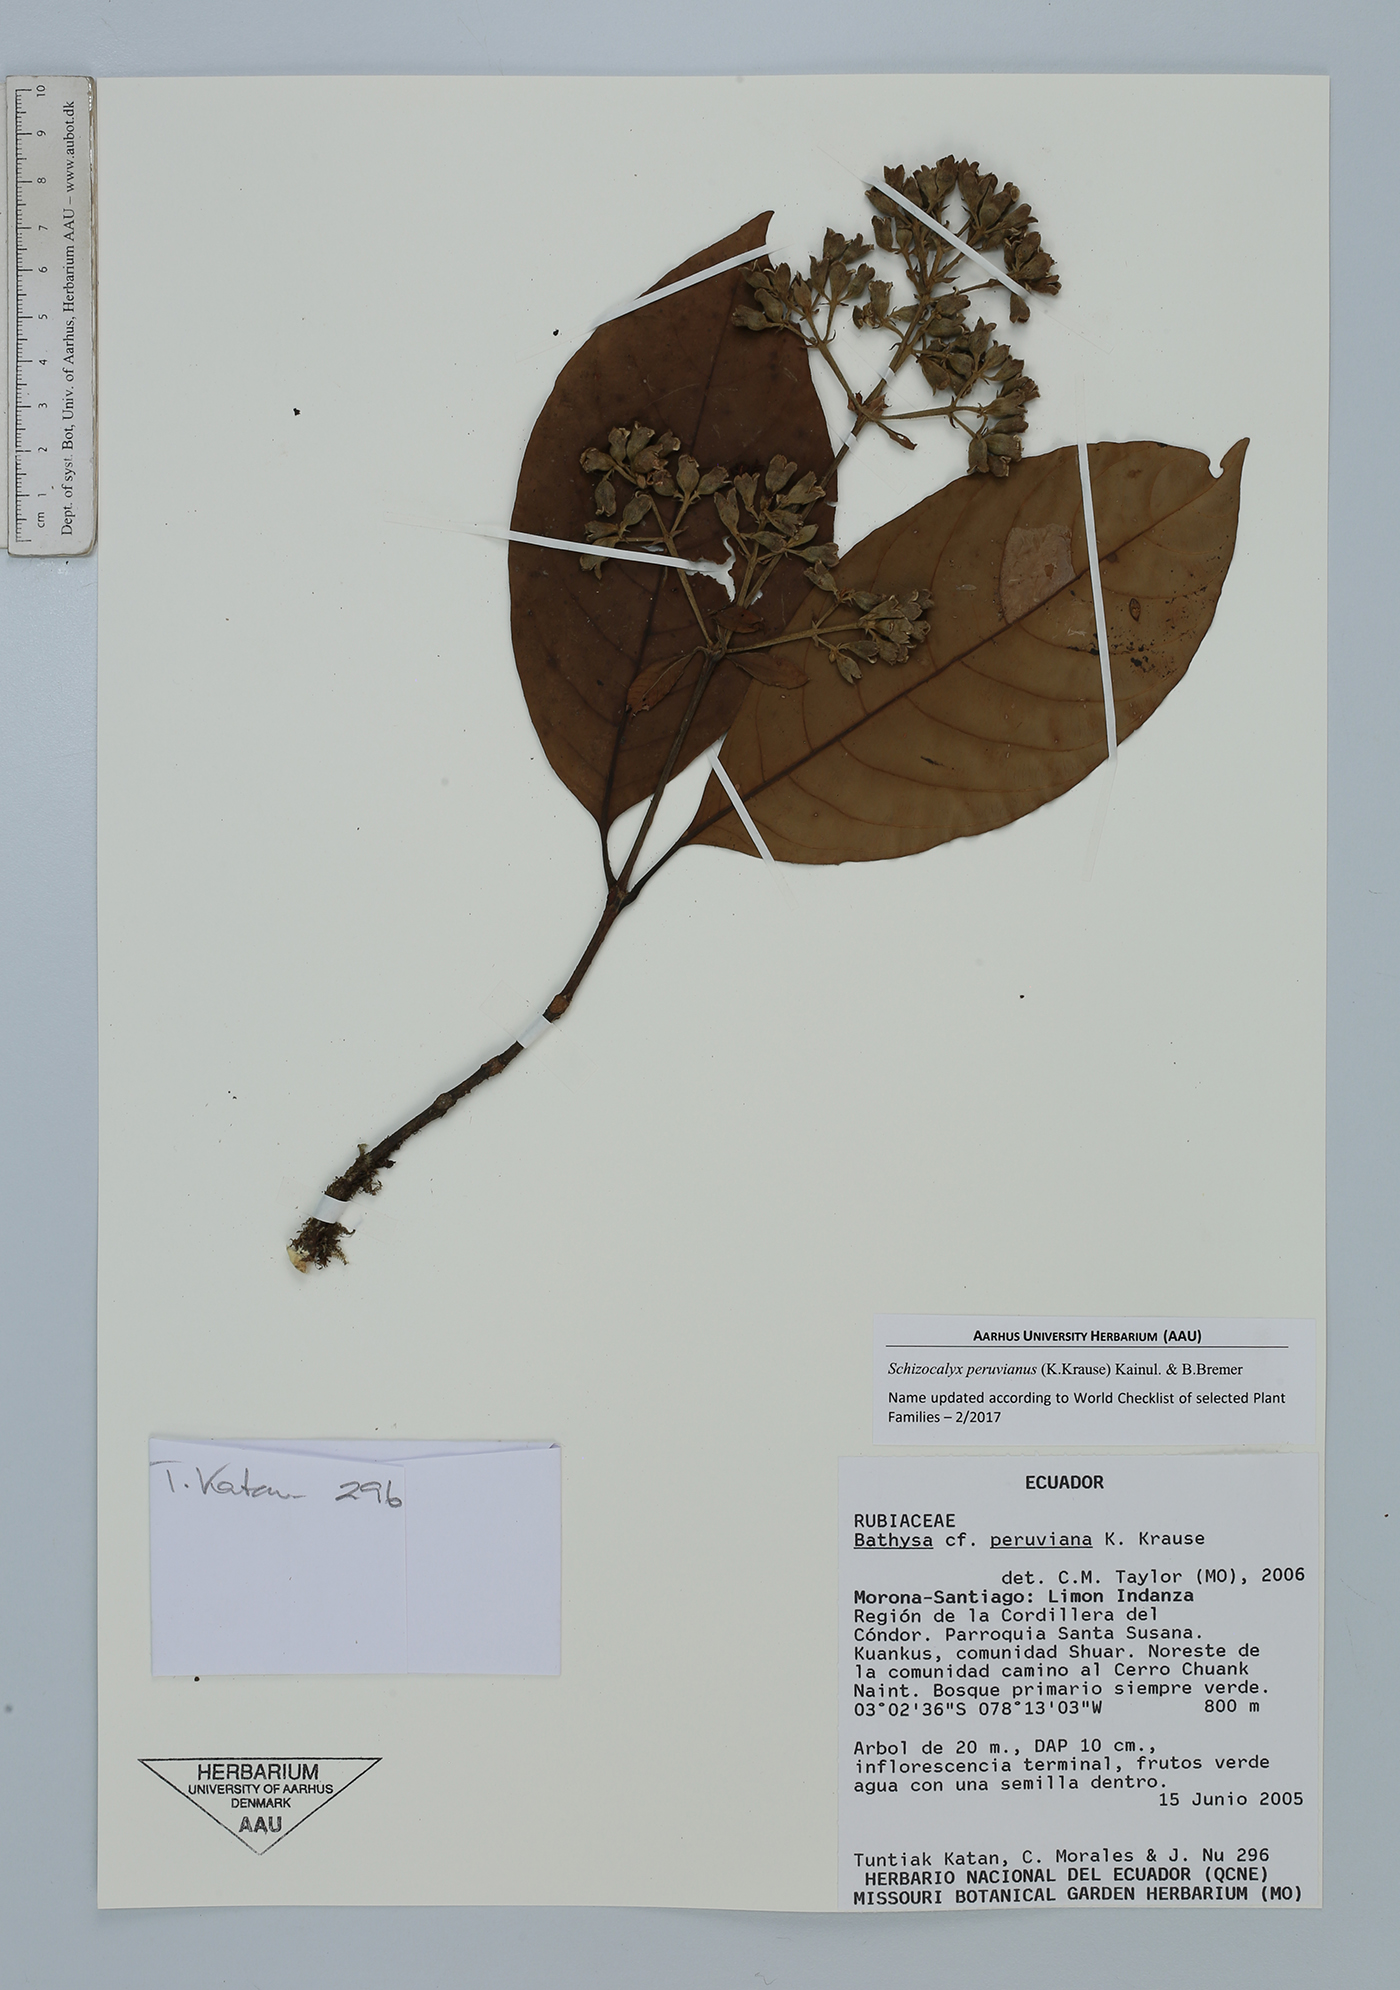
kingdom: Plantae
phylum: Tracheophyta
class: Magnoliopsida
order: Gentianales
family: Rubiaceae
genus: Schizocalyx
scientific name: Schizocalyx peruvianus
